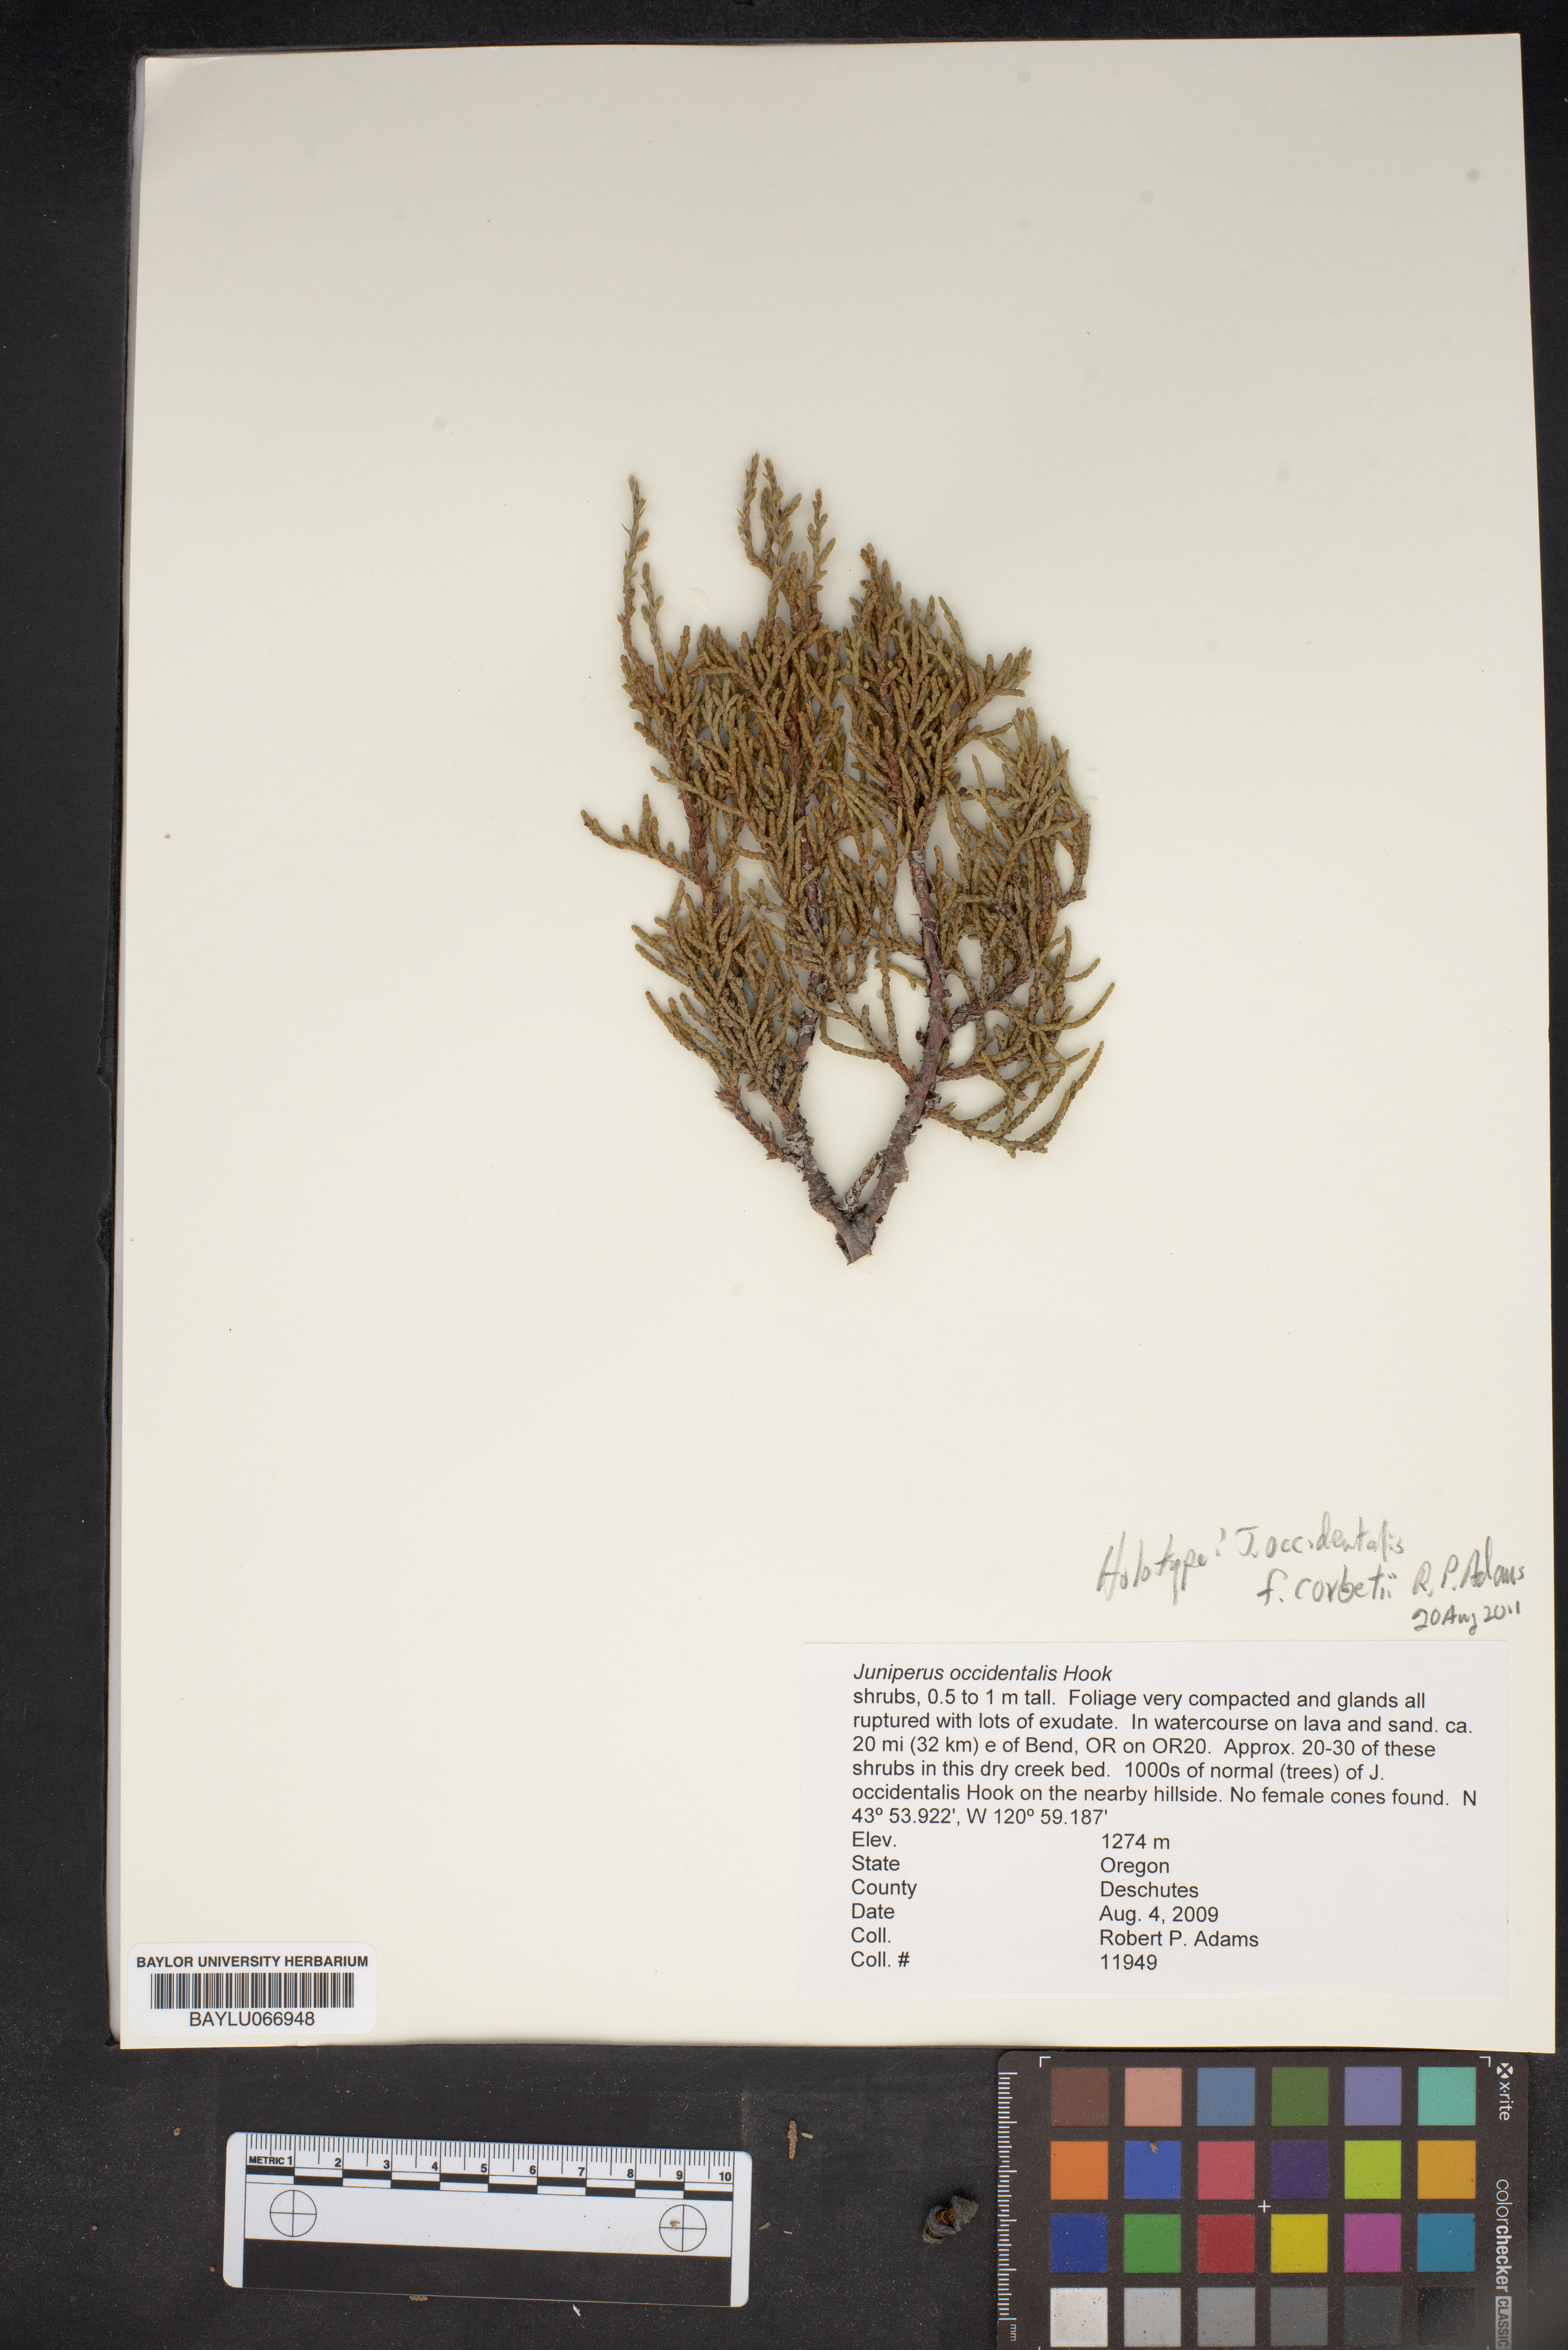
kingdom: Plantae
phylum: Tracheophyta
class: Pinopsida
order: Pinales
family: Cupressaceae
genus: Juniperus
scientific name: Juniperus occidentalis
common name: Western juniper
